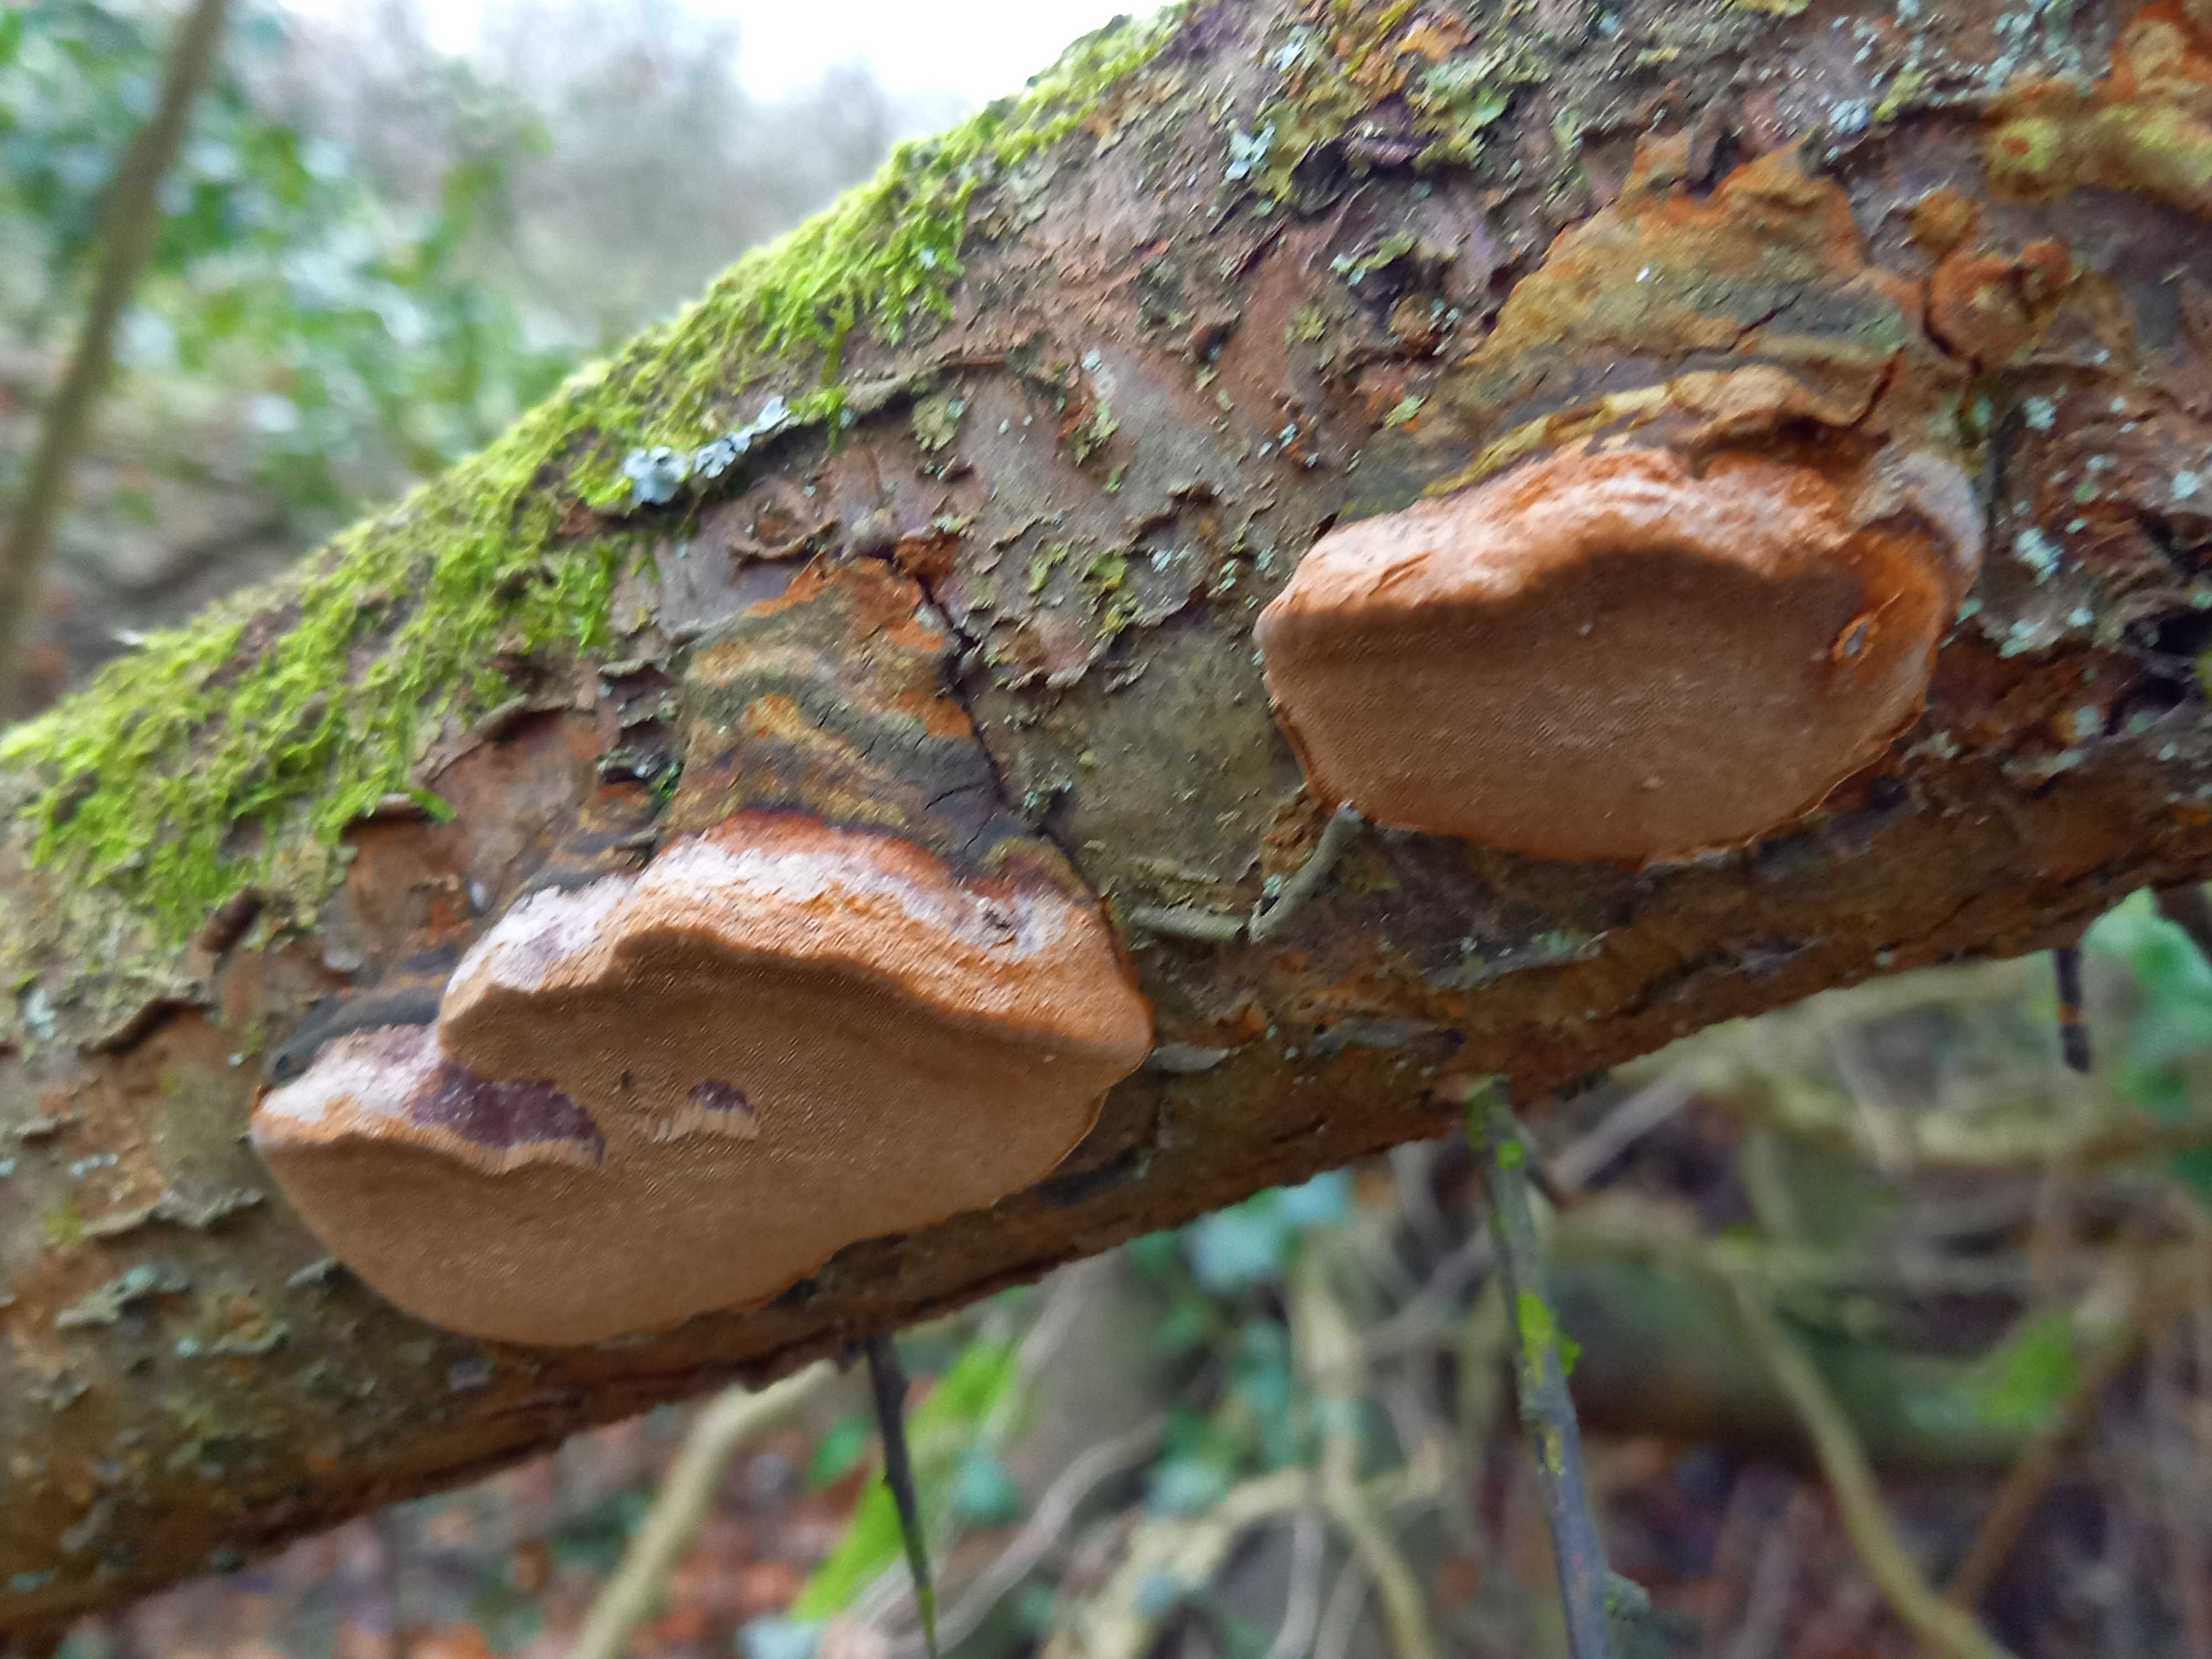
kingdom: Fungi
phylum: Basidiomycota
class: Agaricomycetes
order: Hymenochaetales
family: Hymenochaetaceae
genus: Phellinus
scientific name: Phellinus pomaceus
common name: blomme-ildporesvamp
